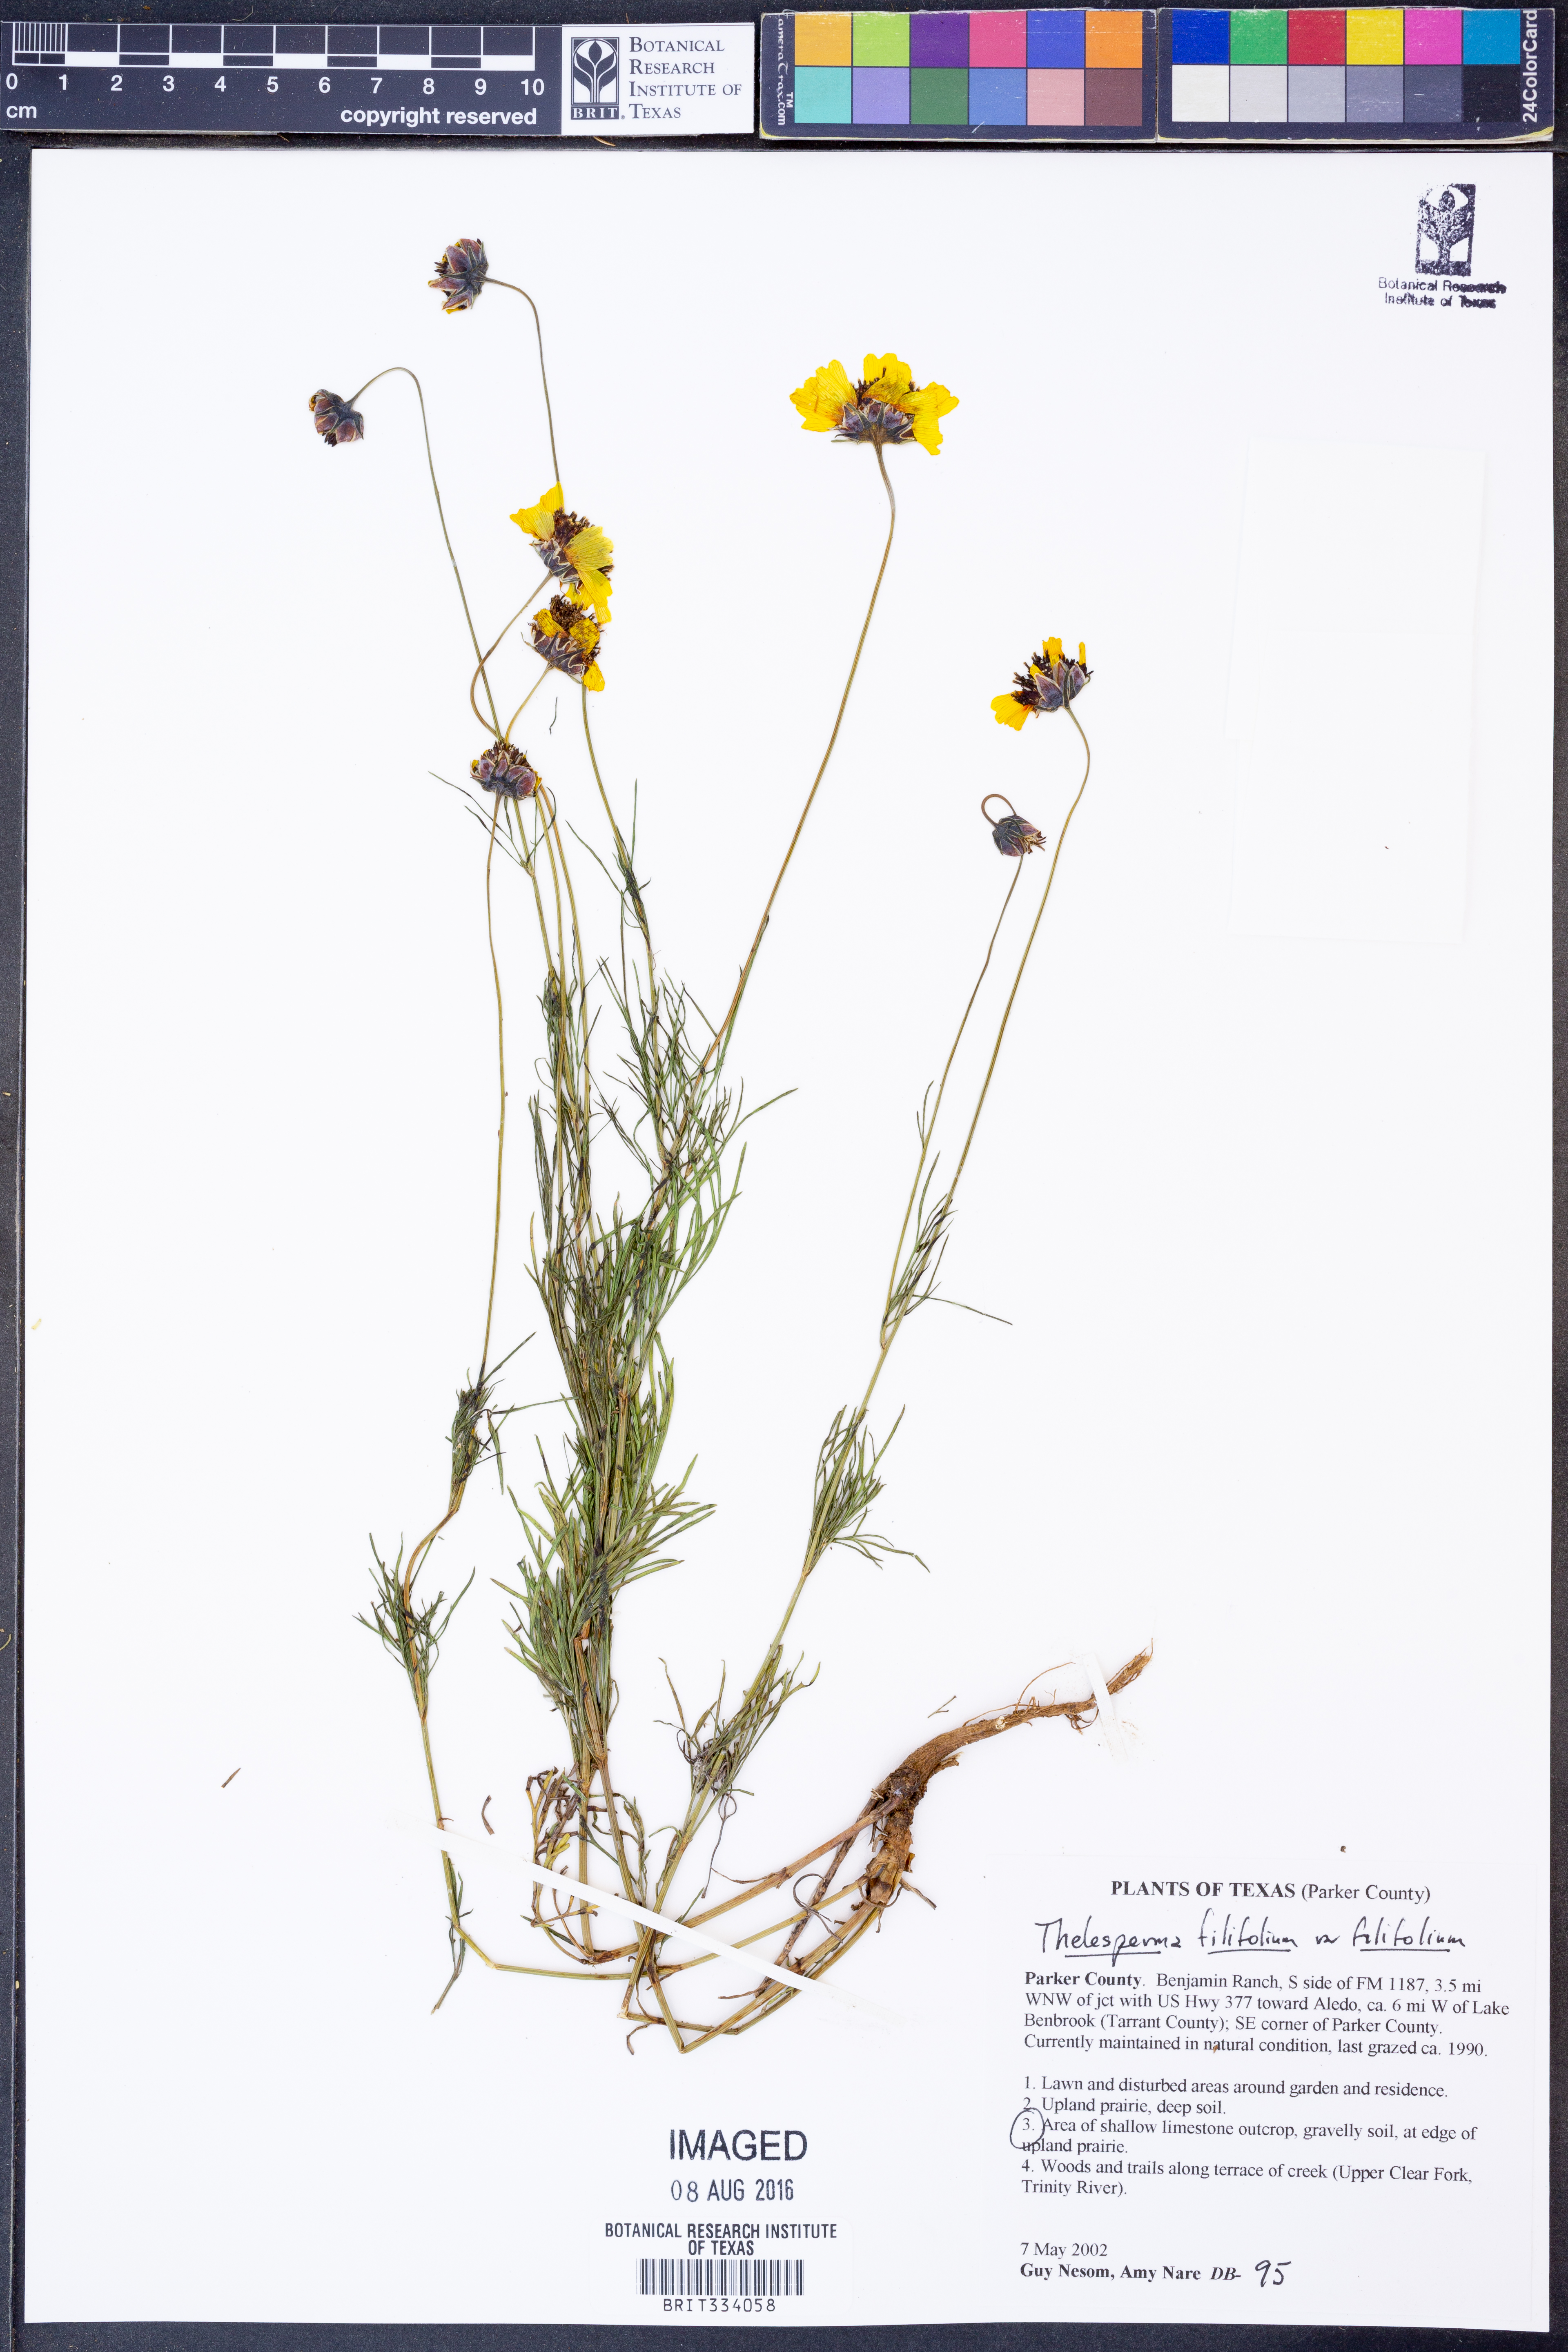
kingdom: Plantae
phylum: Tracheophyta
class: Magnoliopsida
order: Asterales
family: Asteraceae
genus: Thelesperma
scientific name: Thelesperma filifolium
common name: Stiff greenthread
